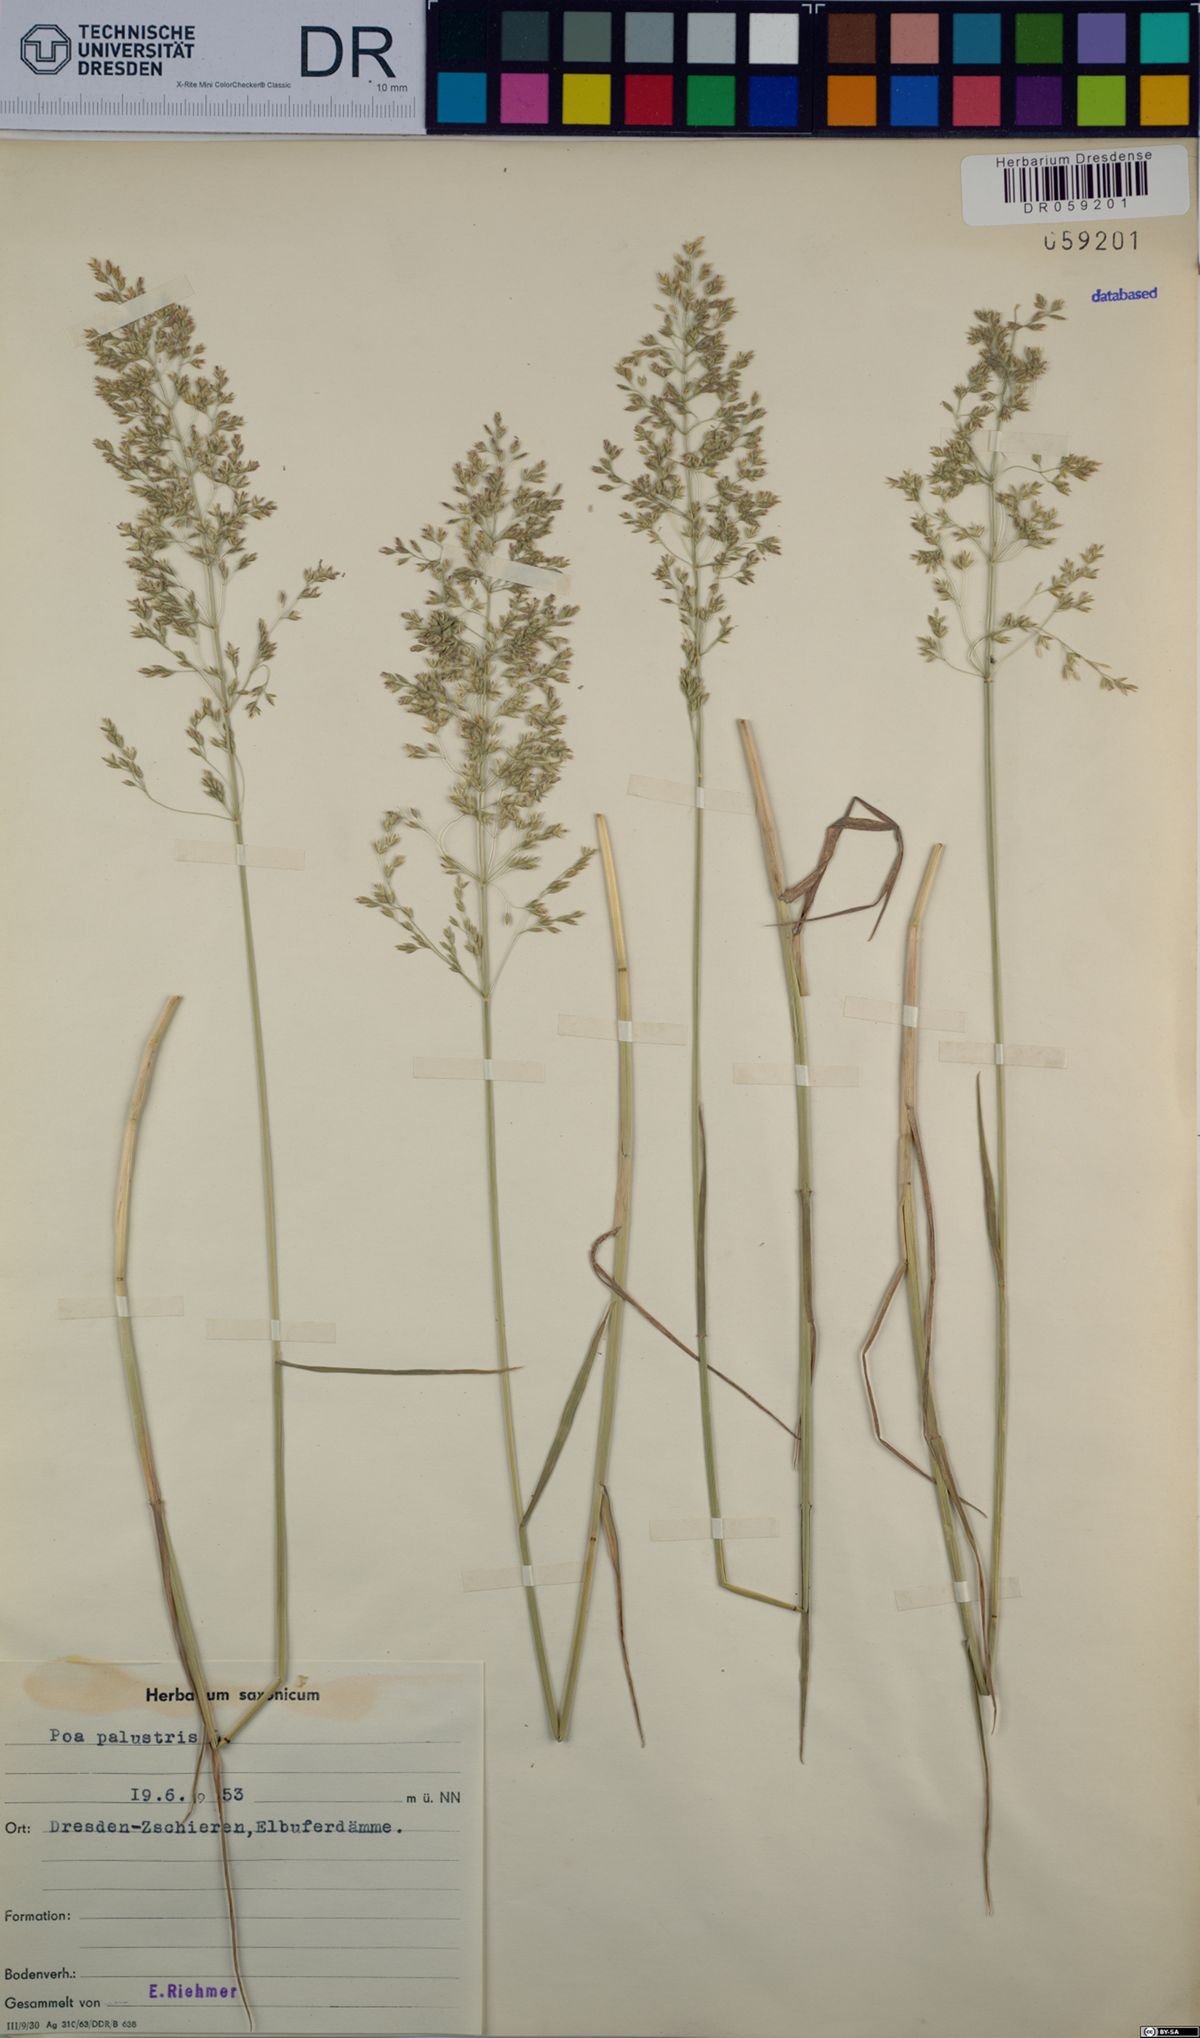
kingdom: Plantae
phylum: Tracheophyta
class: Liliopsida
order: Poales
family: Poaceae
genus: Poa
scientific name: Poa palustris
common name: Swamp meadow-grass
